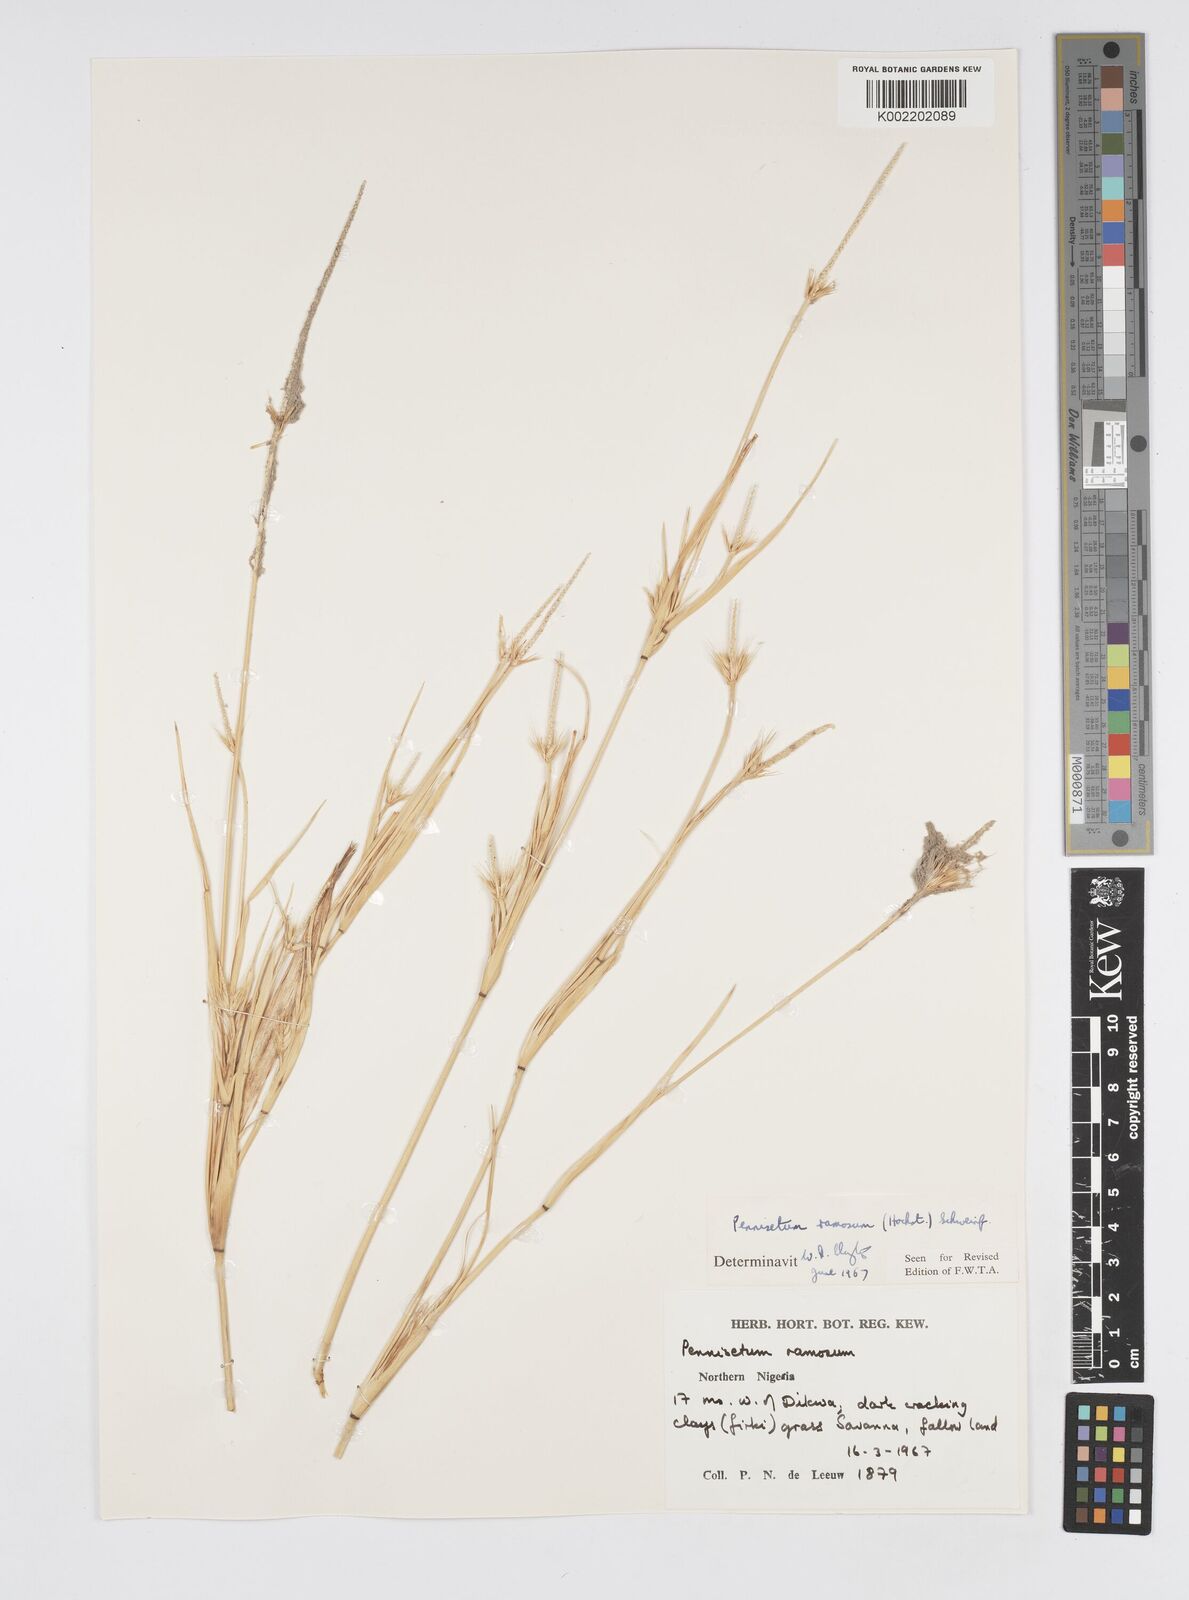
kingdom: Plantae
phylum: Tracheophyta
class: Liliopsida
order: Poales
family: Poaceae
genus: Cenchrus
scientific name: Cenchrus ramosus
